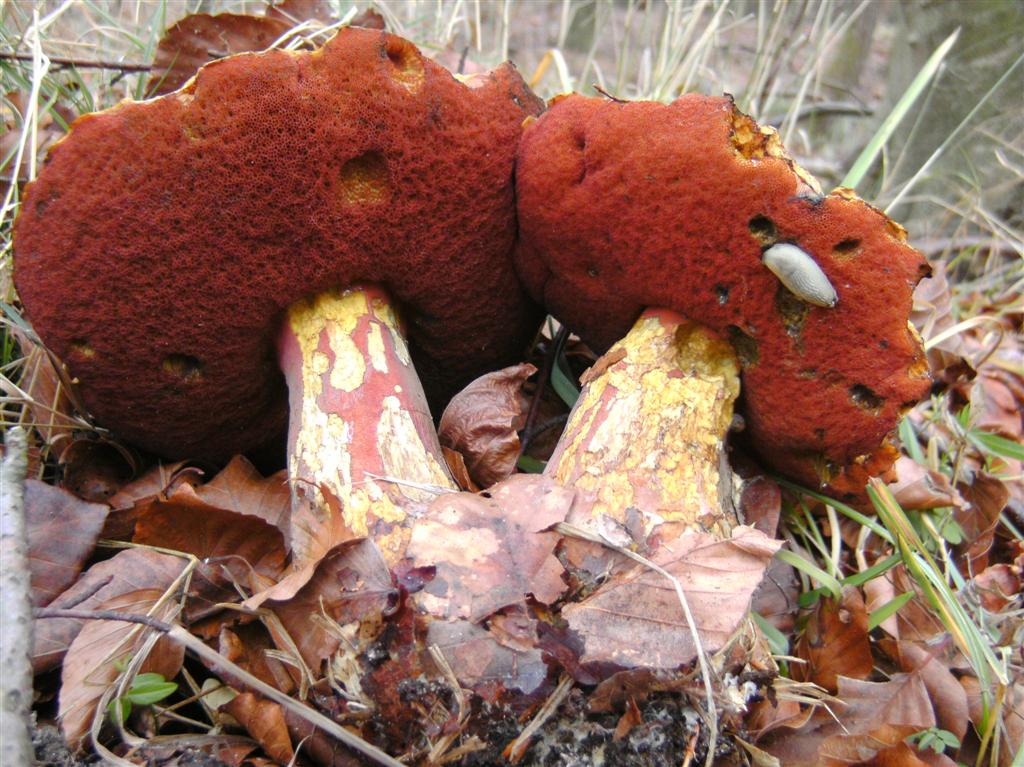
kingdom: Fungi
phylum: Basidiomycota
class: Agaricomycetes
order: Boletales
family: Boletaceae
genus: Neoboletus
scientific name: Neoboletus erythropus
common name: punktstokket indigorørhat
